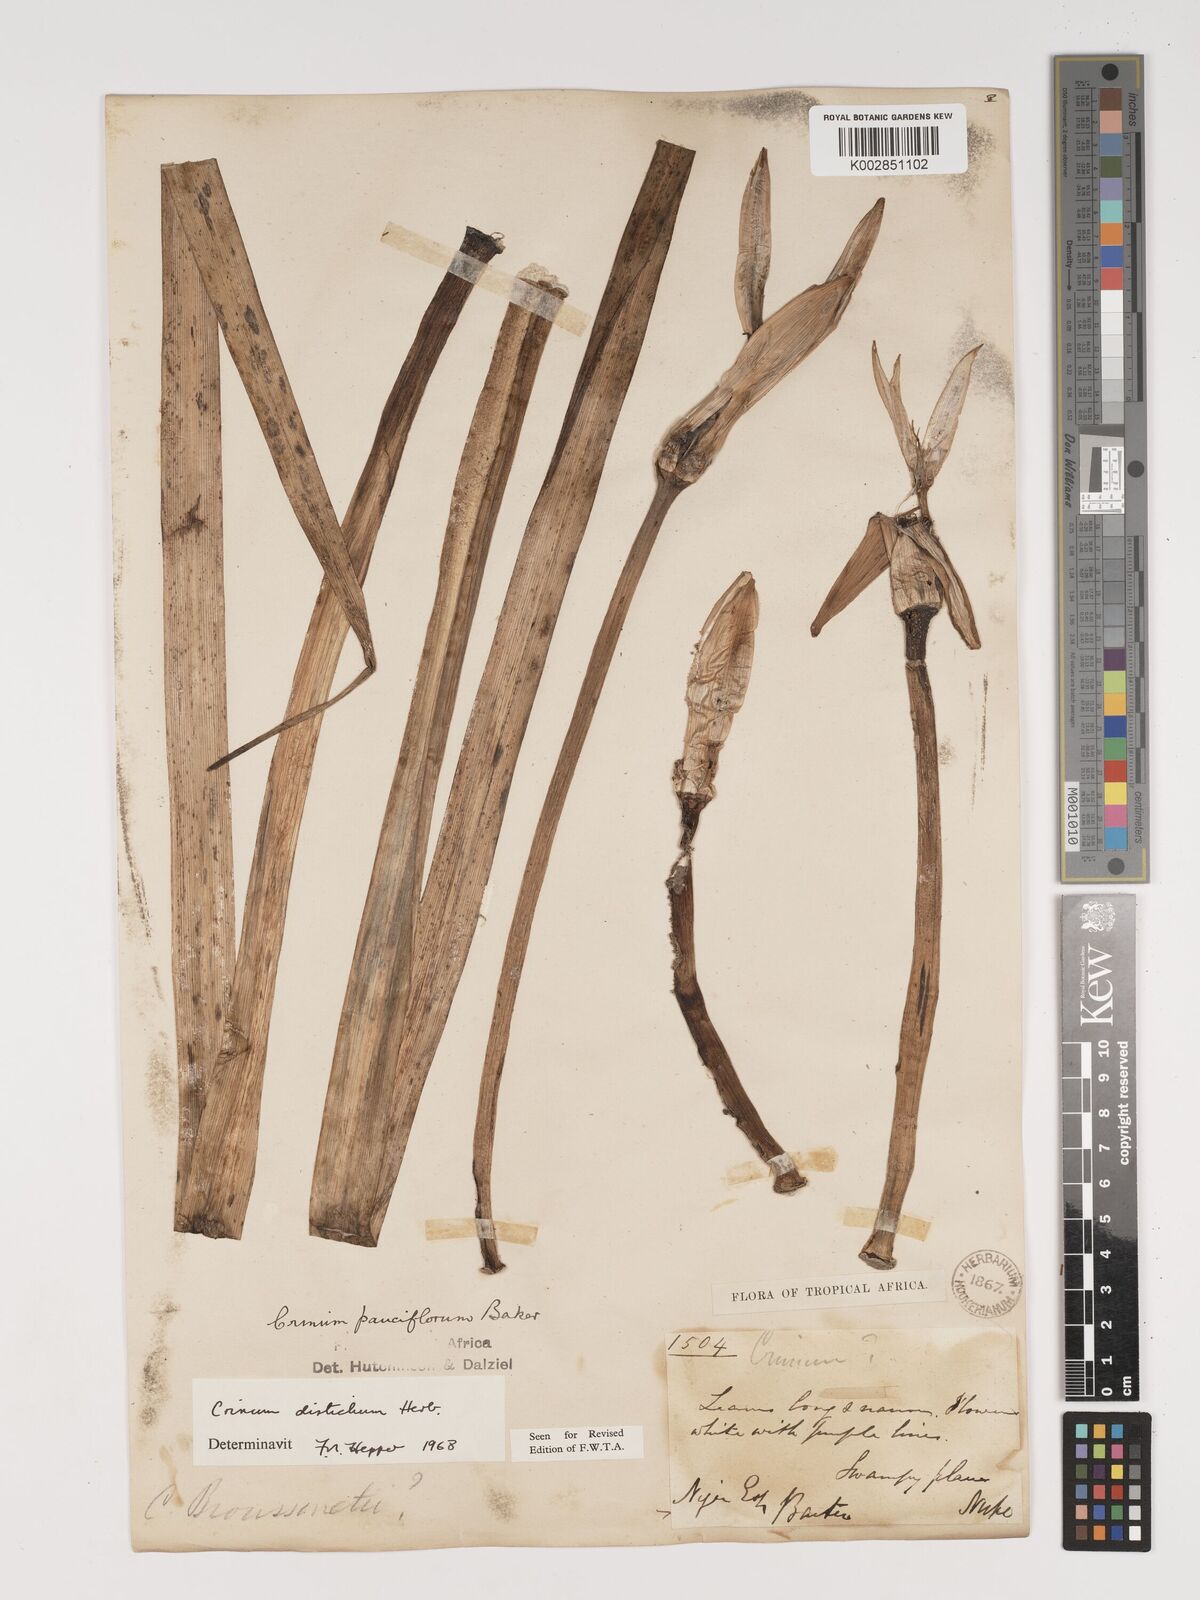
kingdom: Plantae
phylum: Tracheophyta
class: Liliopsida
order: Asparagales
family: Amaryllidaceae
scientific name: Amaryllidaceae
